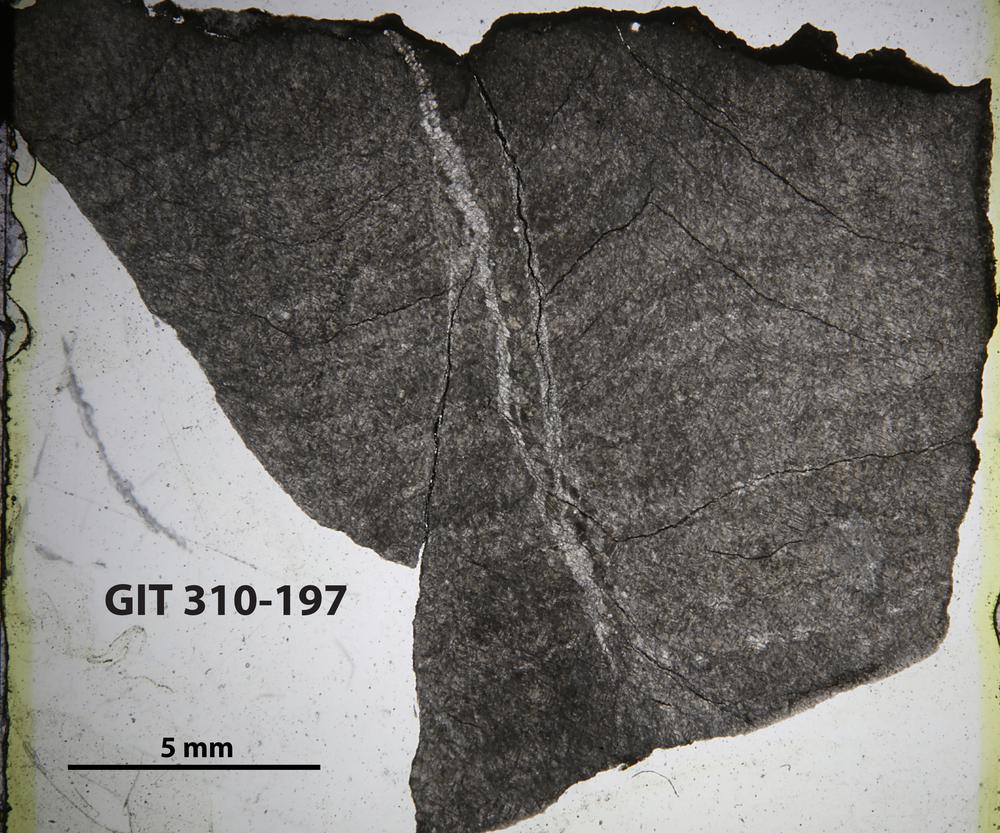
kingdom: Animalia
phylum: Porifera
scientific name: Porifera
